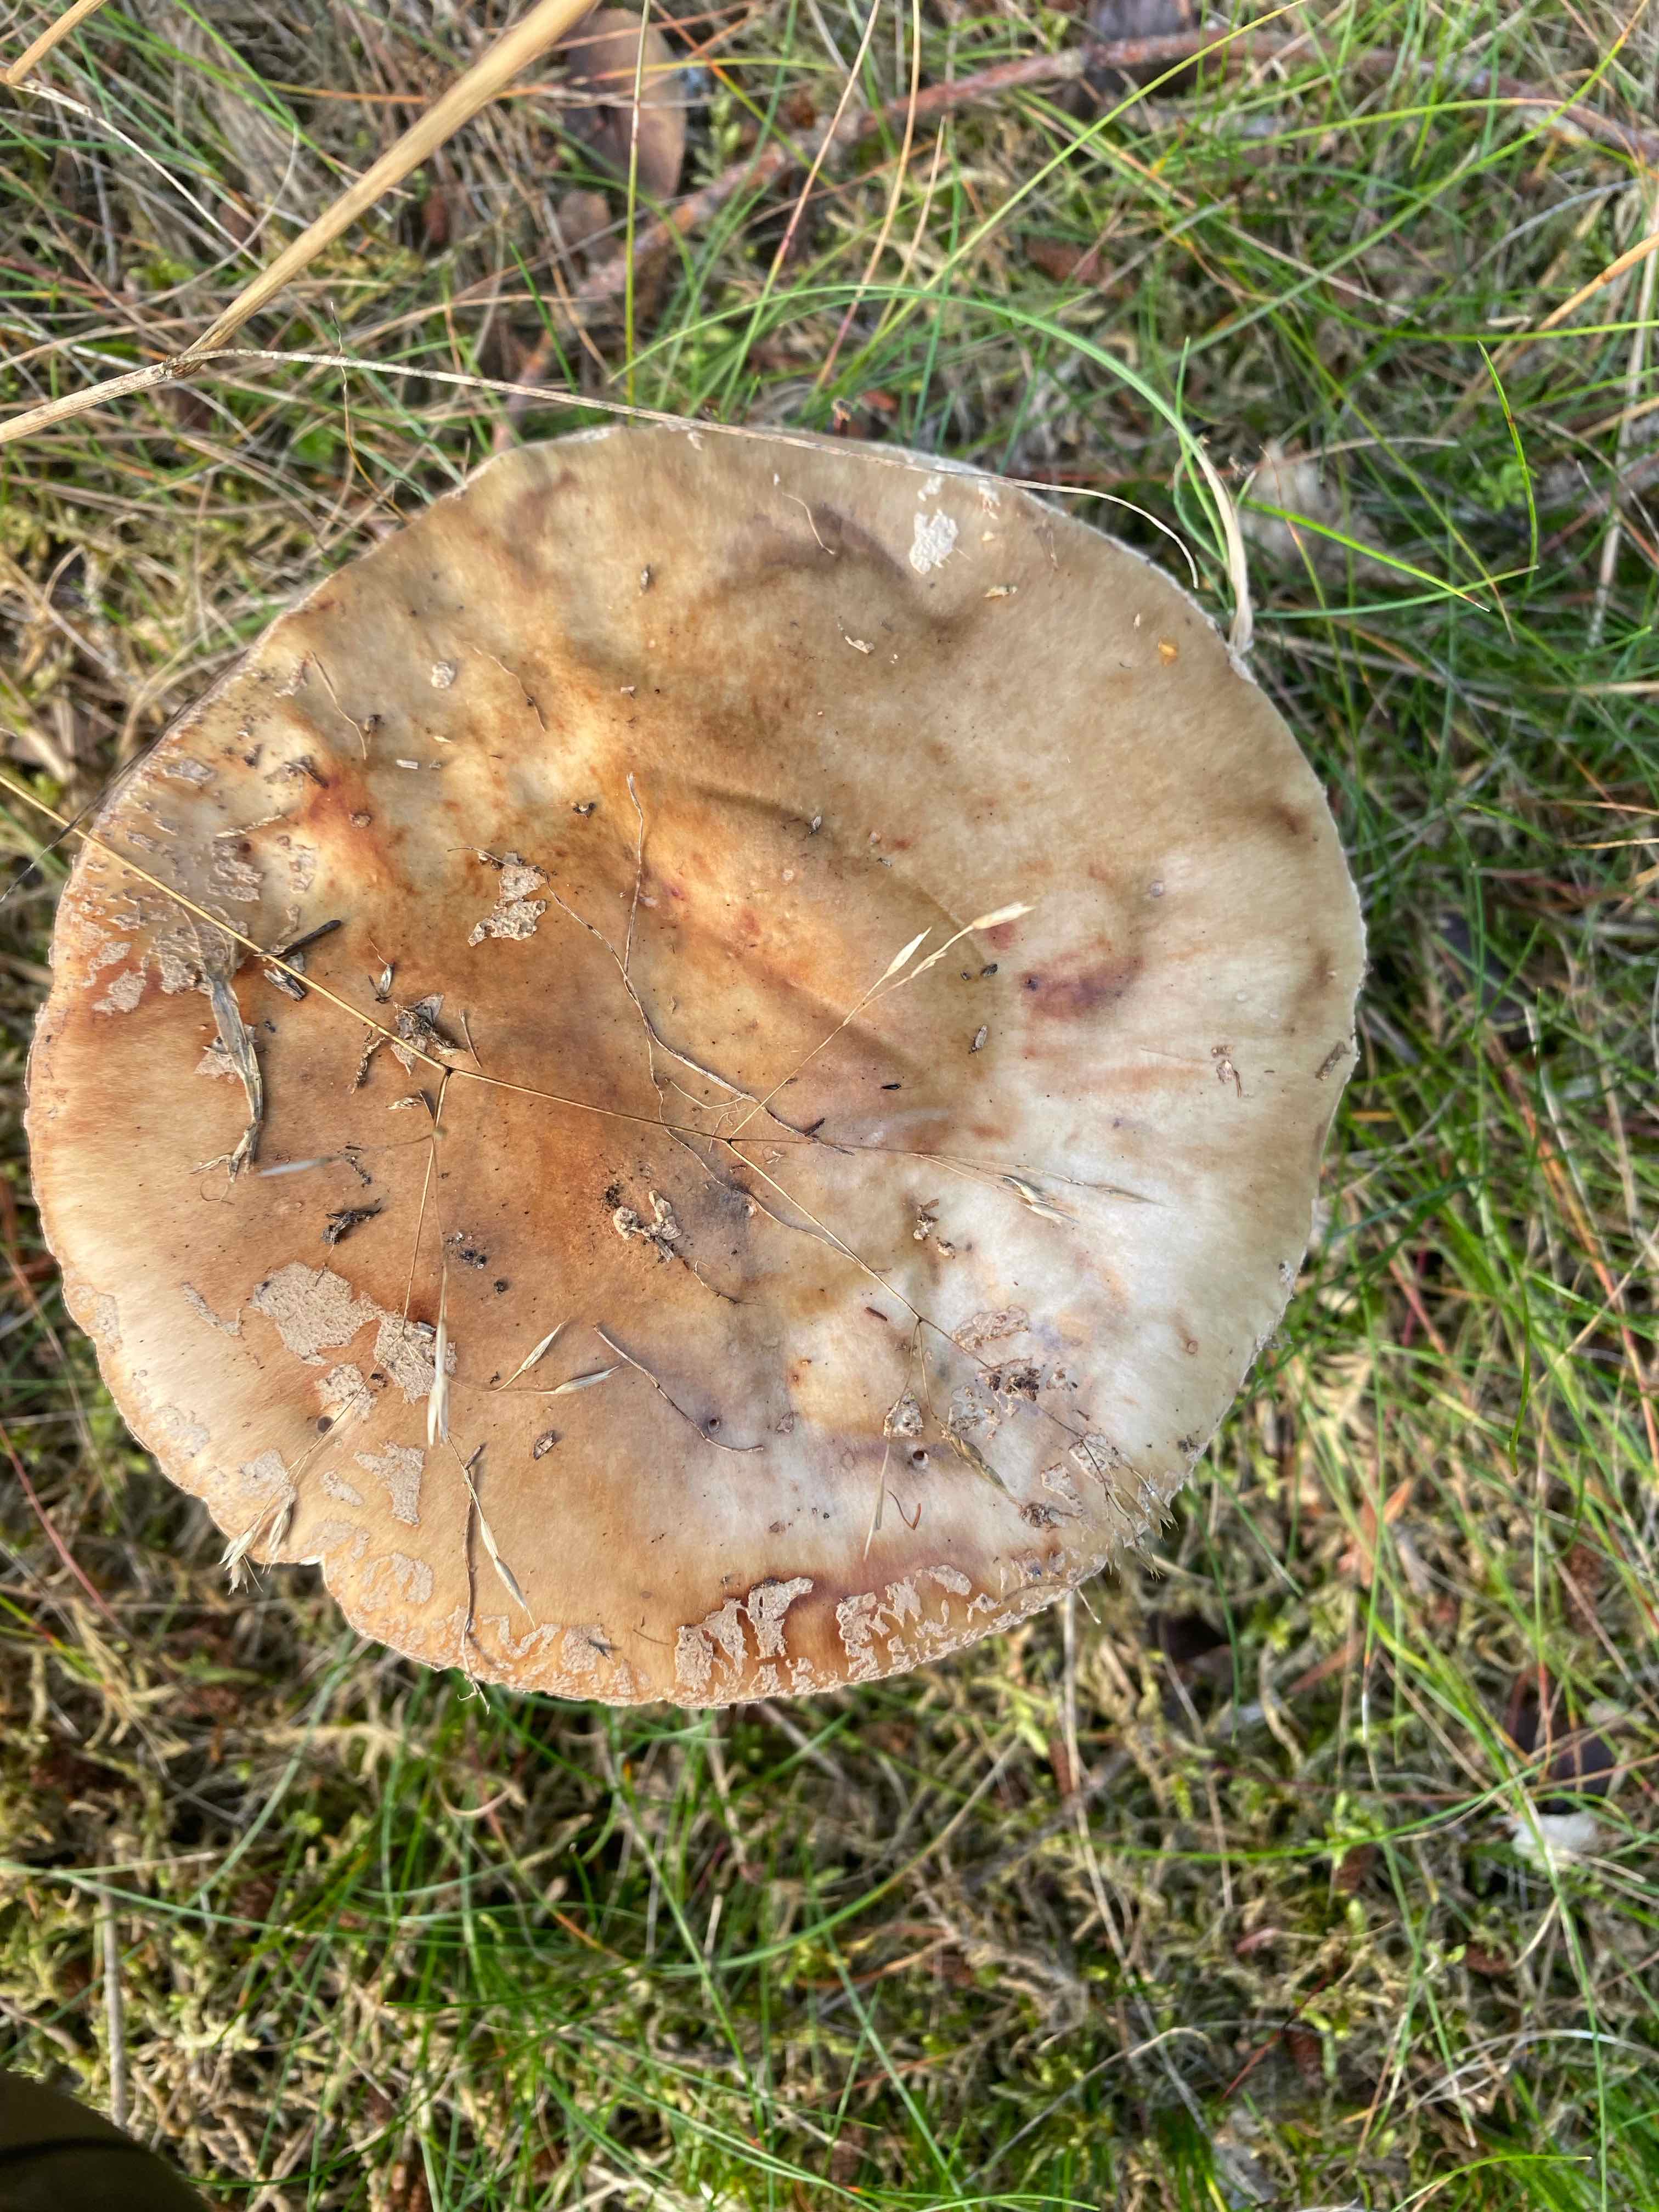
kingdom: Fungi
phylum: Basidiomycota
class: Agaricomycetes
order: Agaricales
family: Amanitaceae
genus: Amanita
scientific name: Amanita rubescens
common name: rødmende fluesvamp
